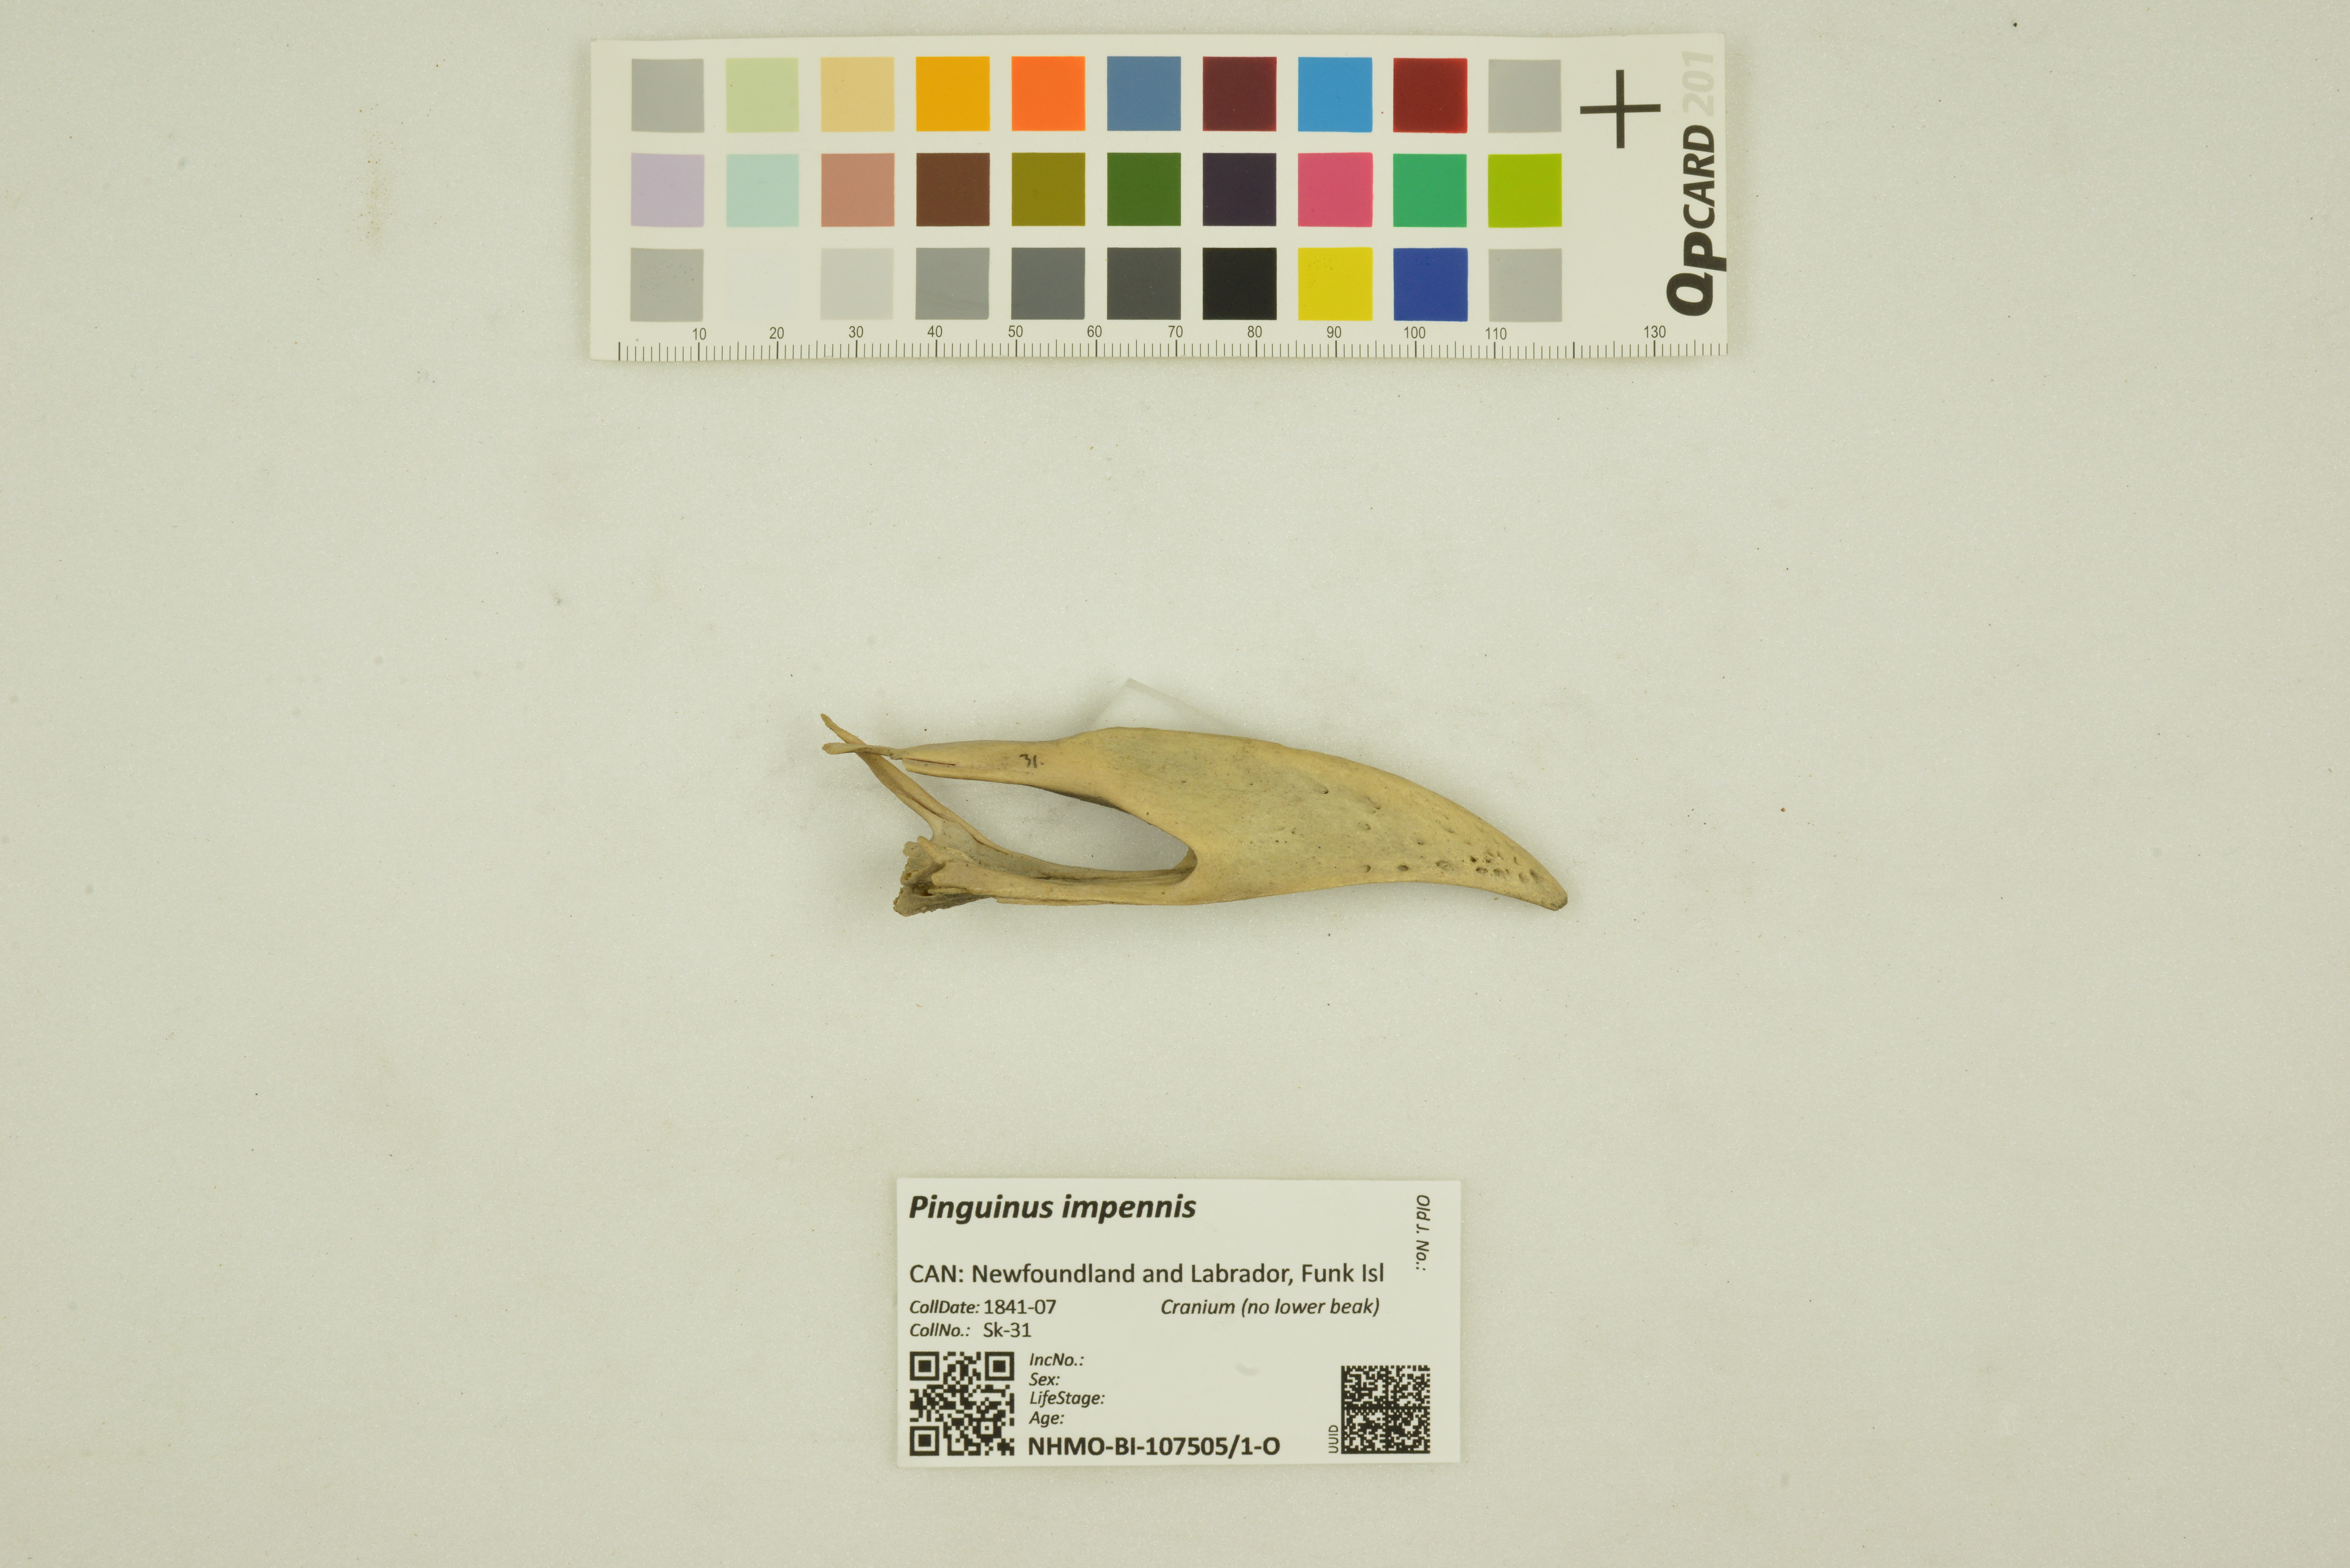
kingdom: Animalia
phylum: Chordata
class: Aves
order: Charadriiformes
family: Alcidae
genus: Pinguinus
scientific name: Pinguinus impennis
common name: Great auk
